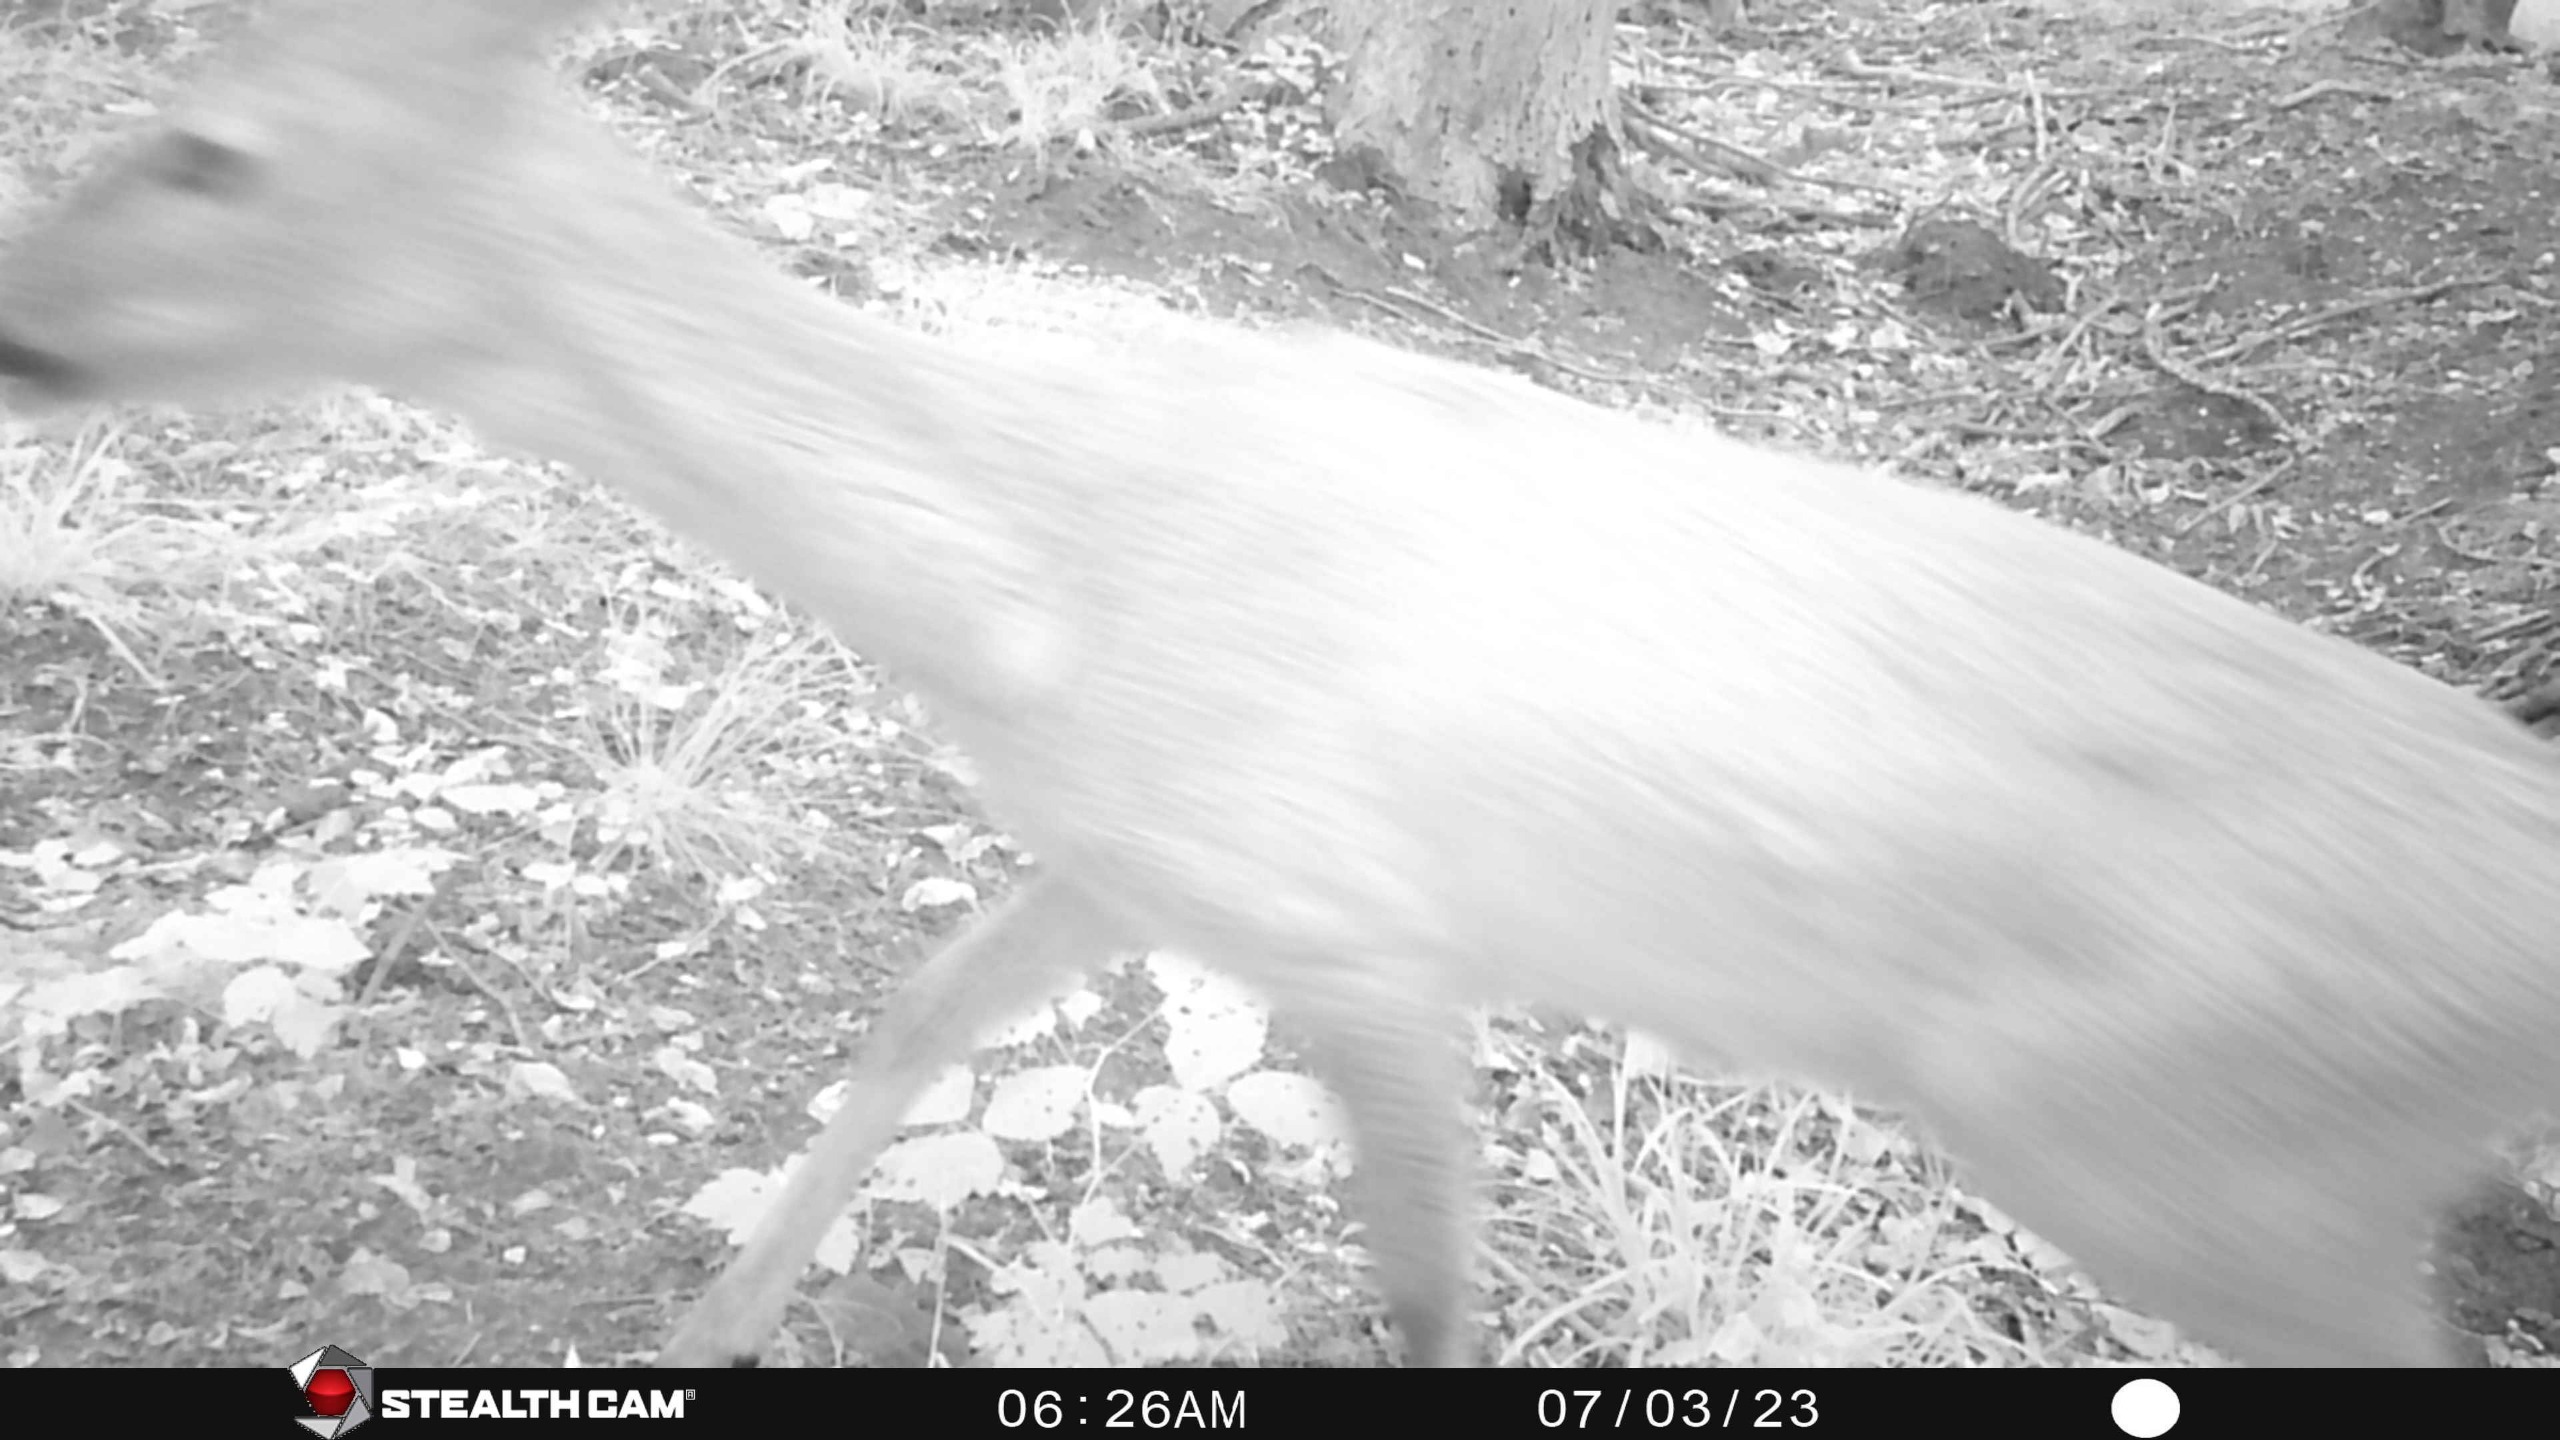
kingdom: Animalia
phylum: Chordata
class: Mammalia
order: Artiodactyla
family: Cervidae
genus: Capreolus
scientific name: Capreolus capreolus
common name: Rådyr
